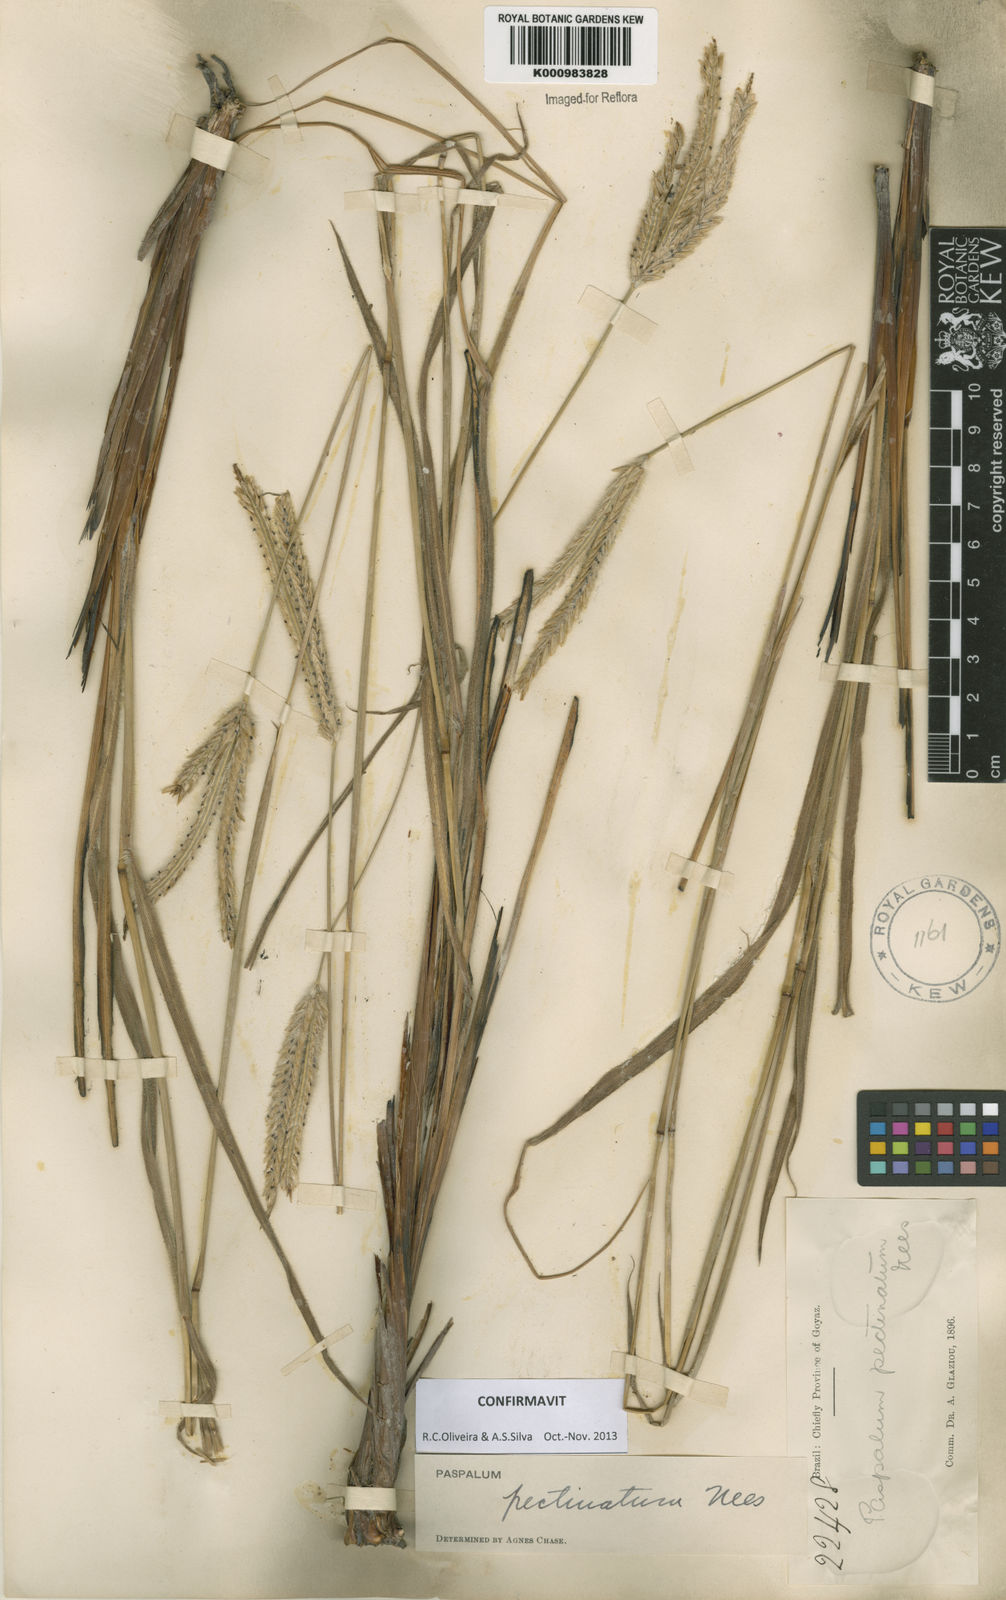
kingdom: Plantae
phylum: Tracheophyta
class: Liliopsida
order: Poales
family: Poaceae
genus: Paspalum
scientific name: Paspalum
